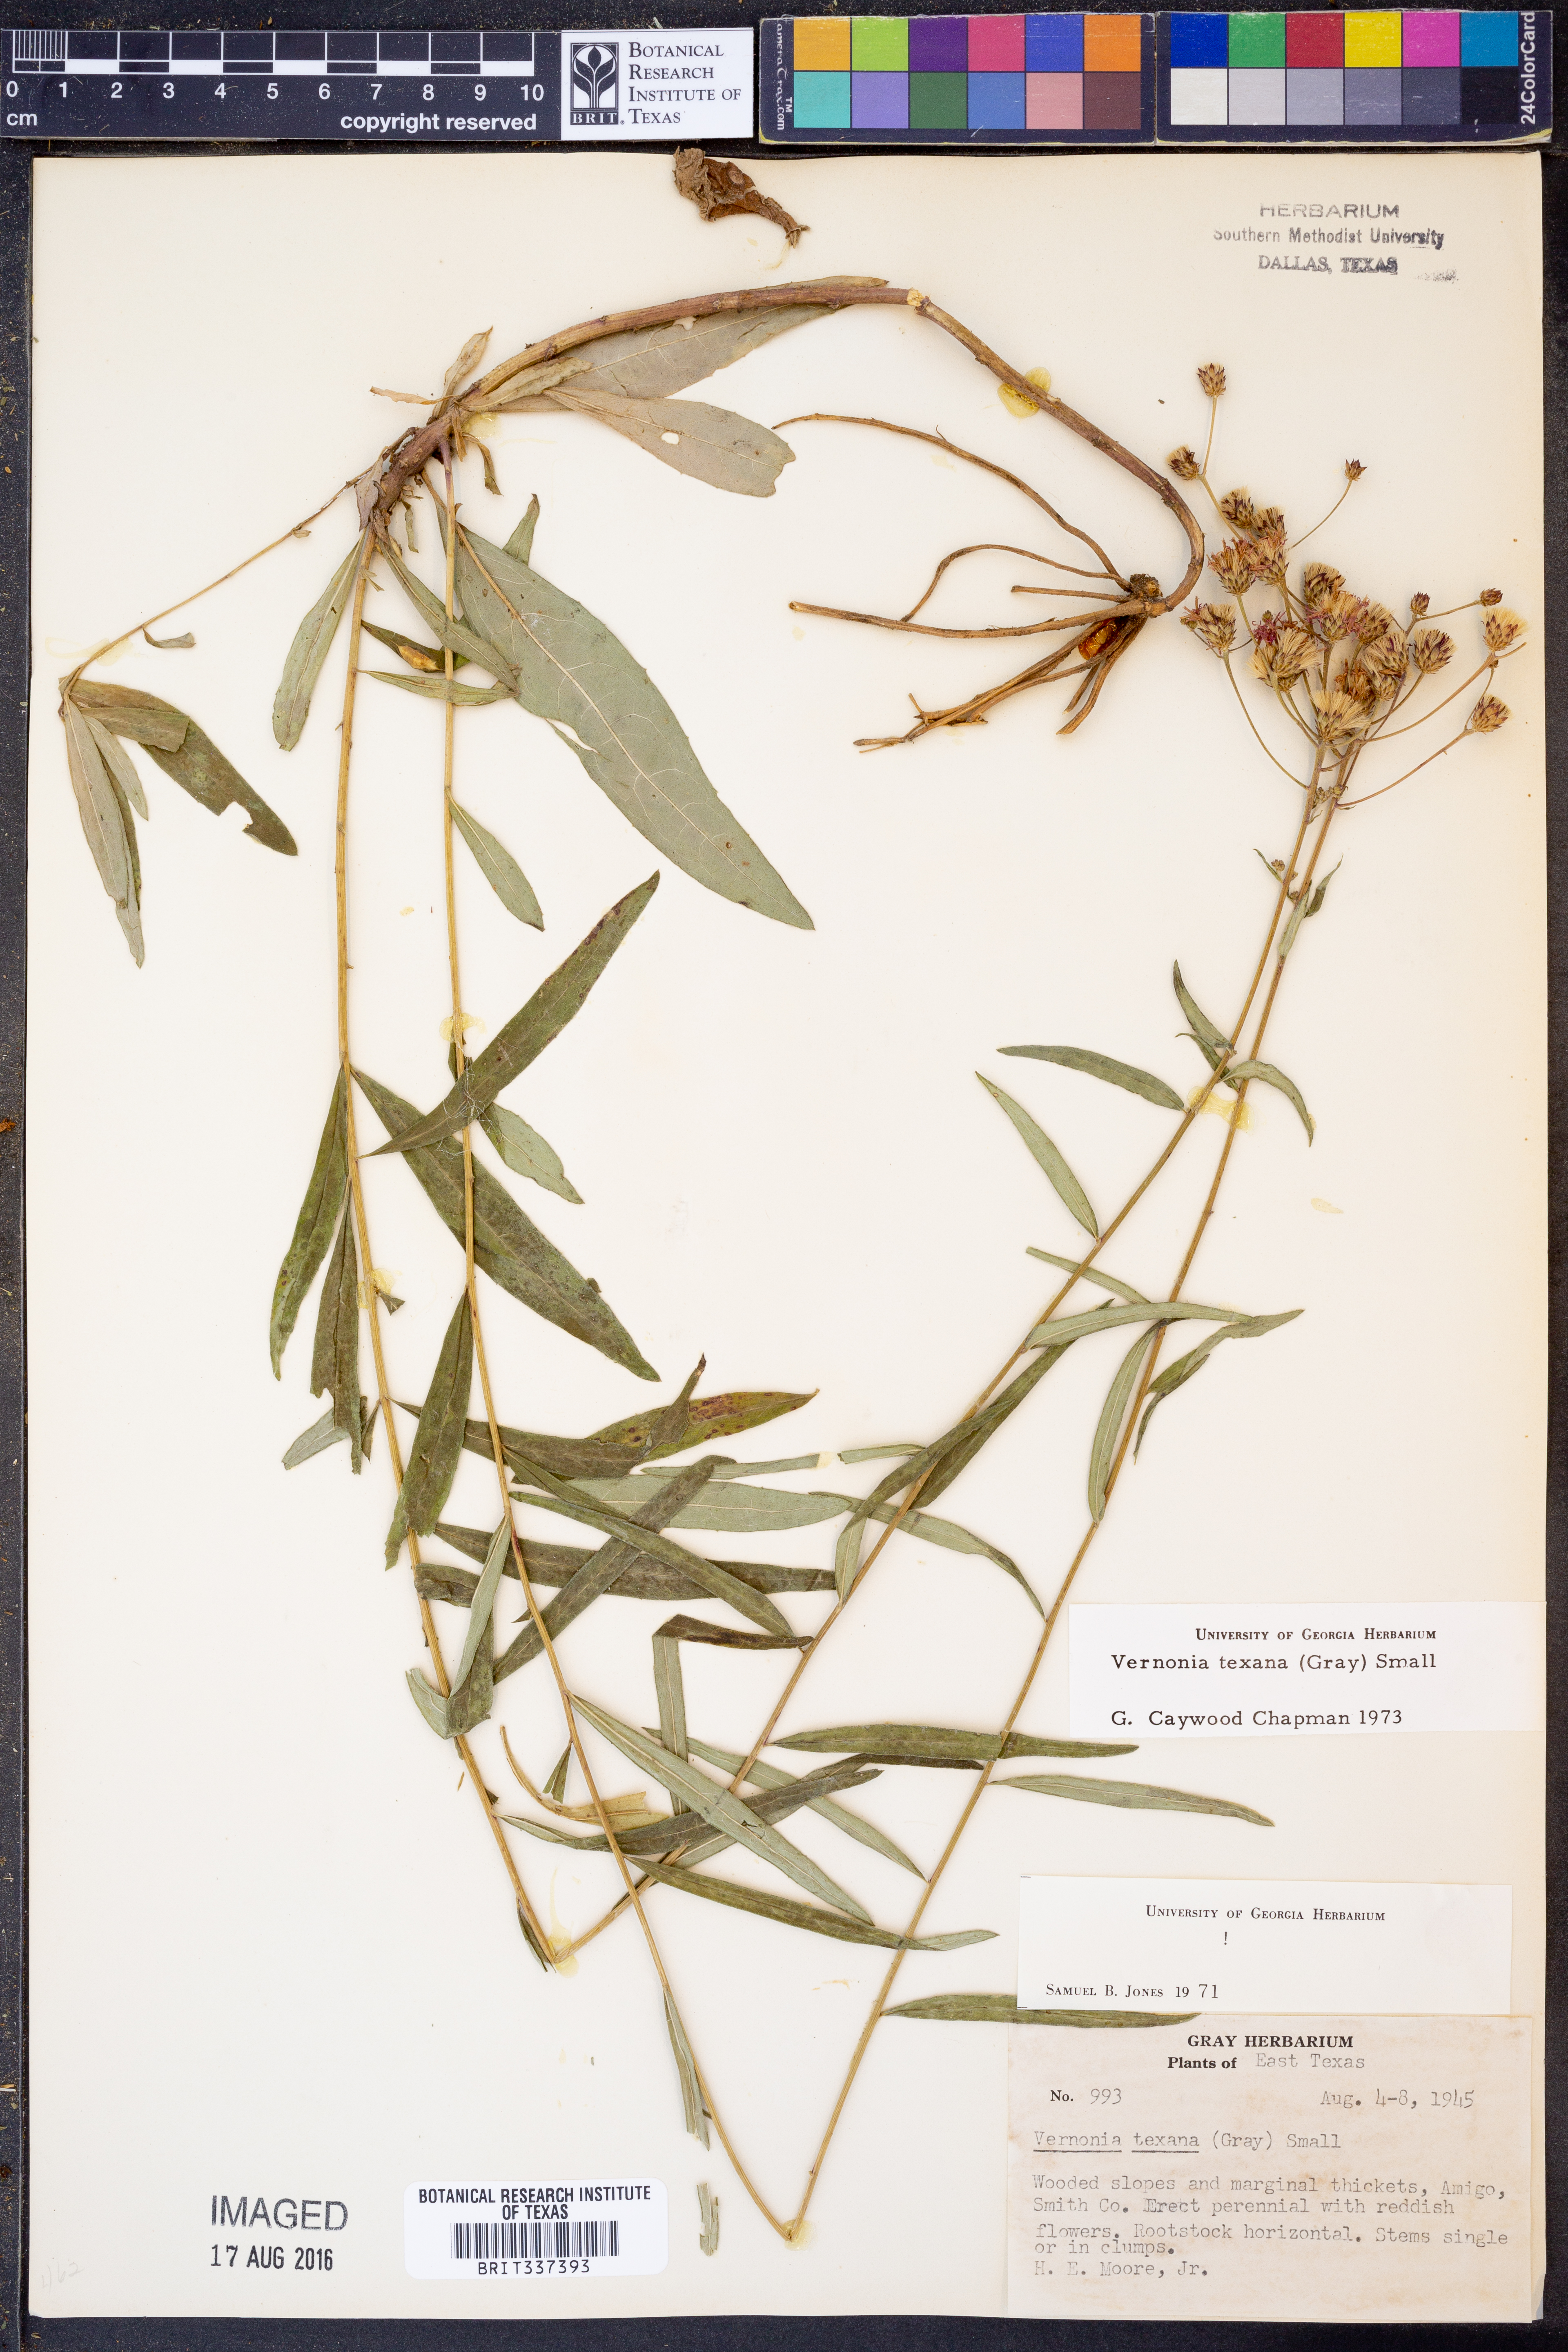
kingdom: Plantae
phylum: Tracheophyta
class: Magnoliopsida
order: Asterales
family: Asteraceae
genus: Vernonia
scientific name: Vernonia texana
